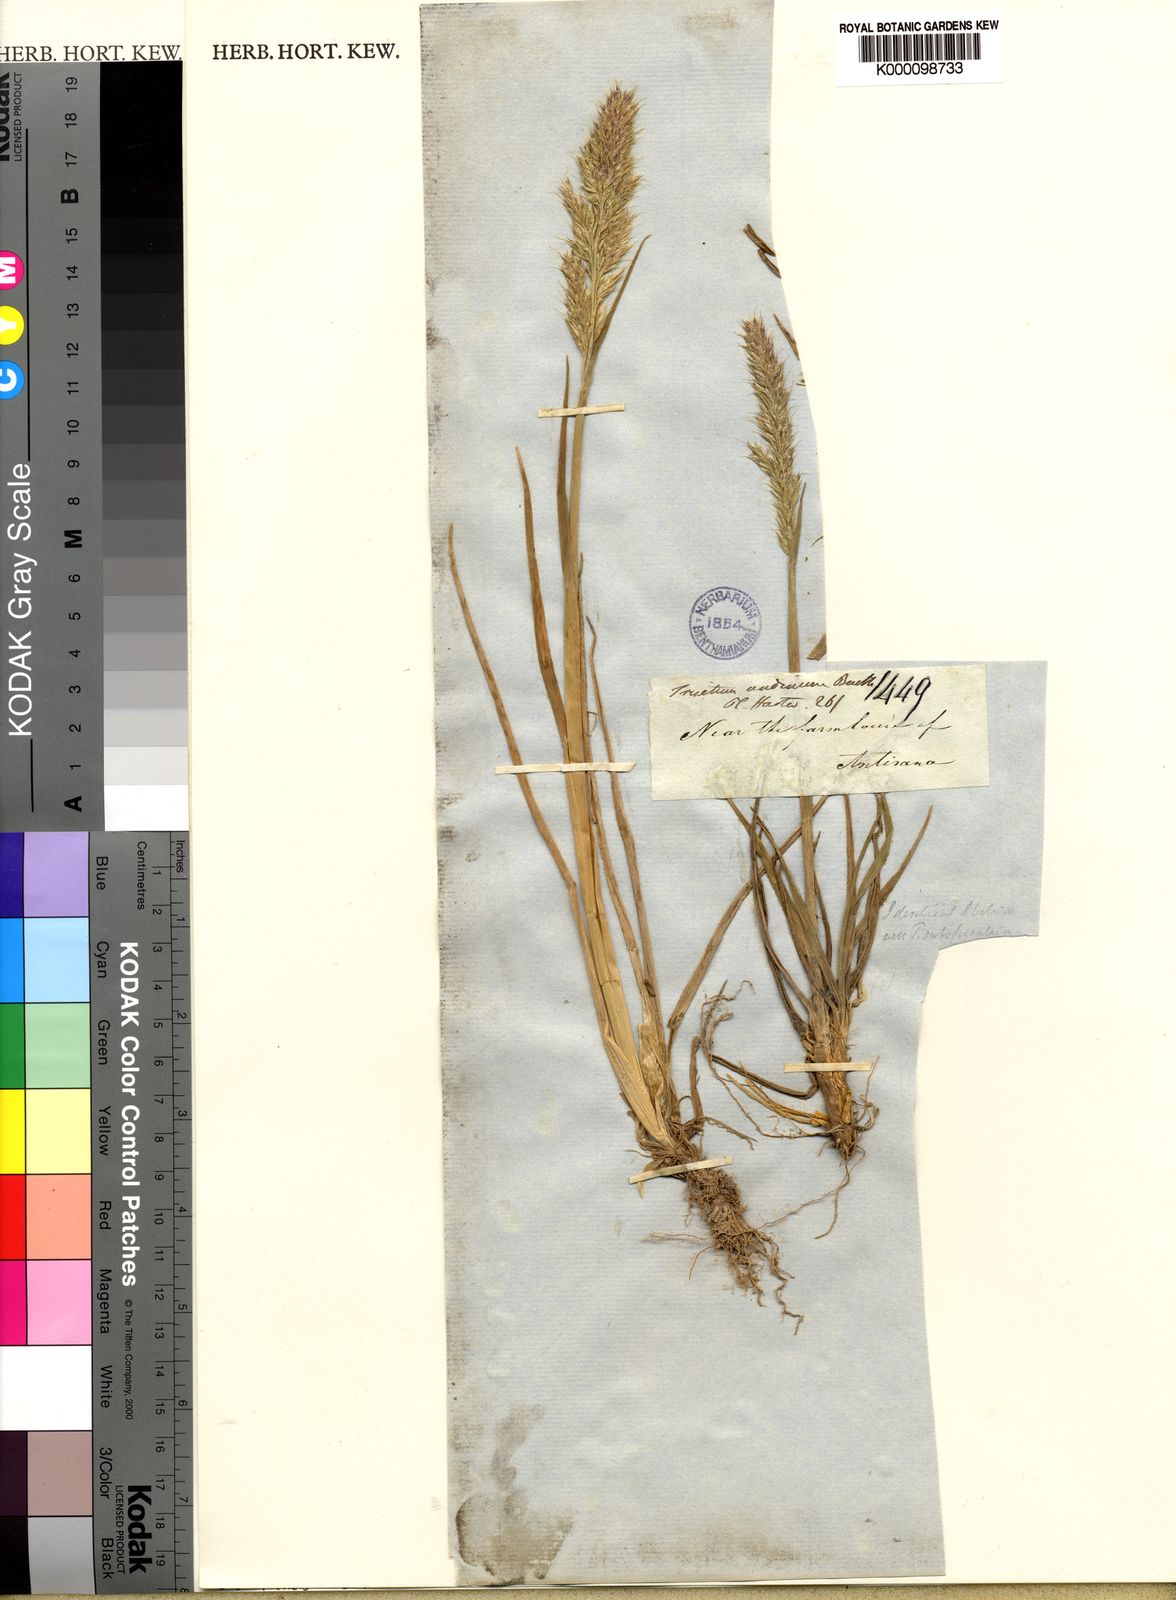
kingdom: Plantae
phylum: Tracheophyta
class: Liliopsida
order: Poales
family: Poaceae
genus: Koeleria
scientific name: Koeleria spicata
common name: Mountain trisetum
